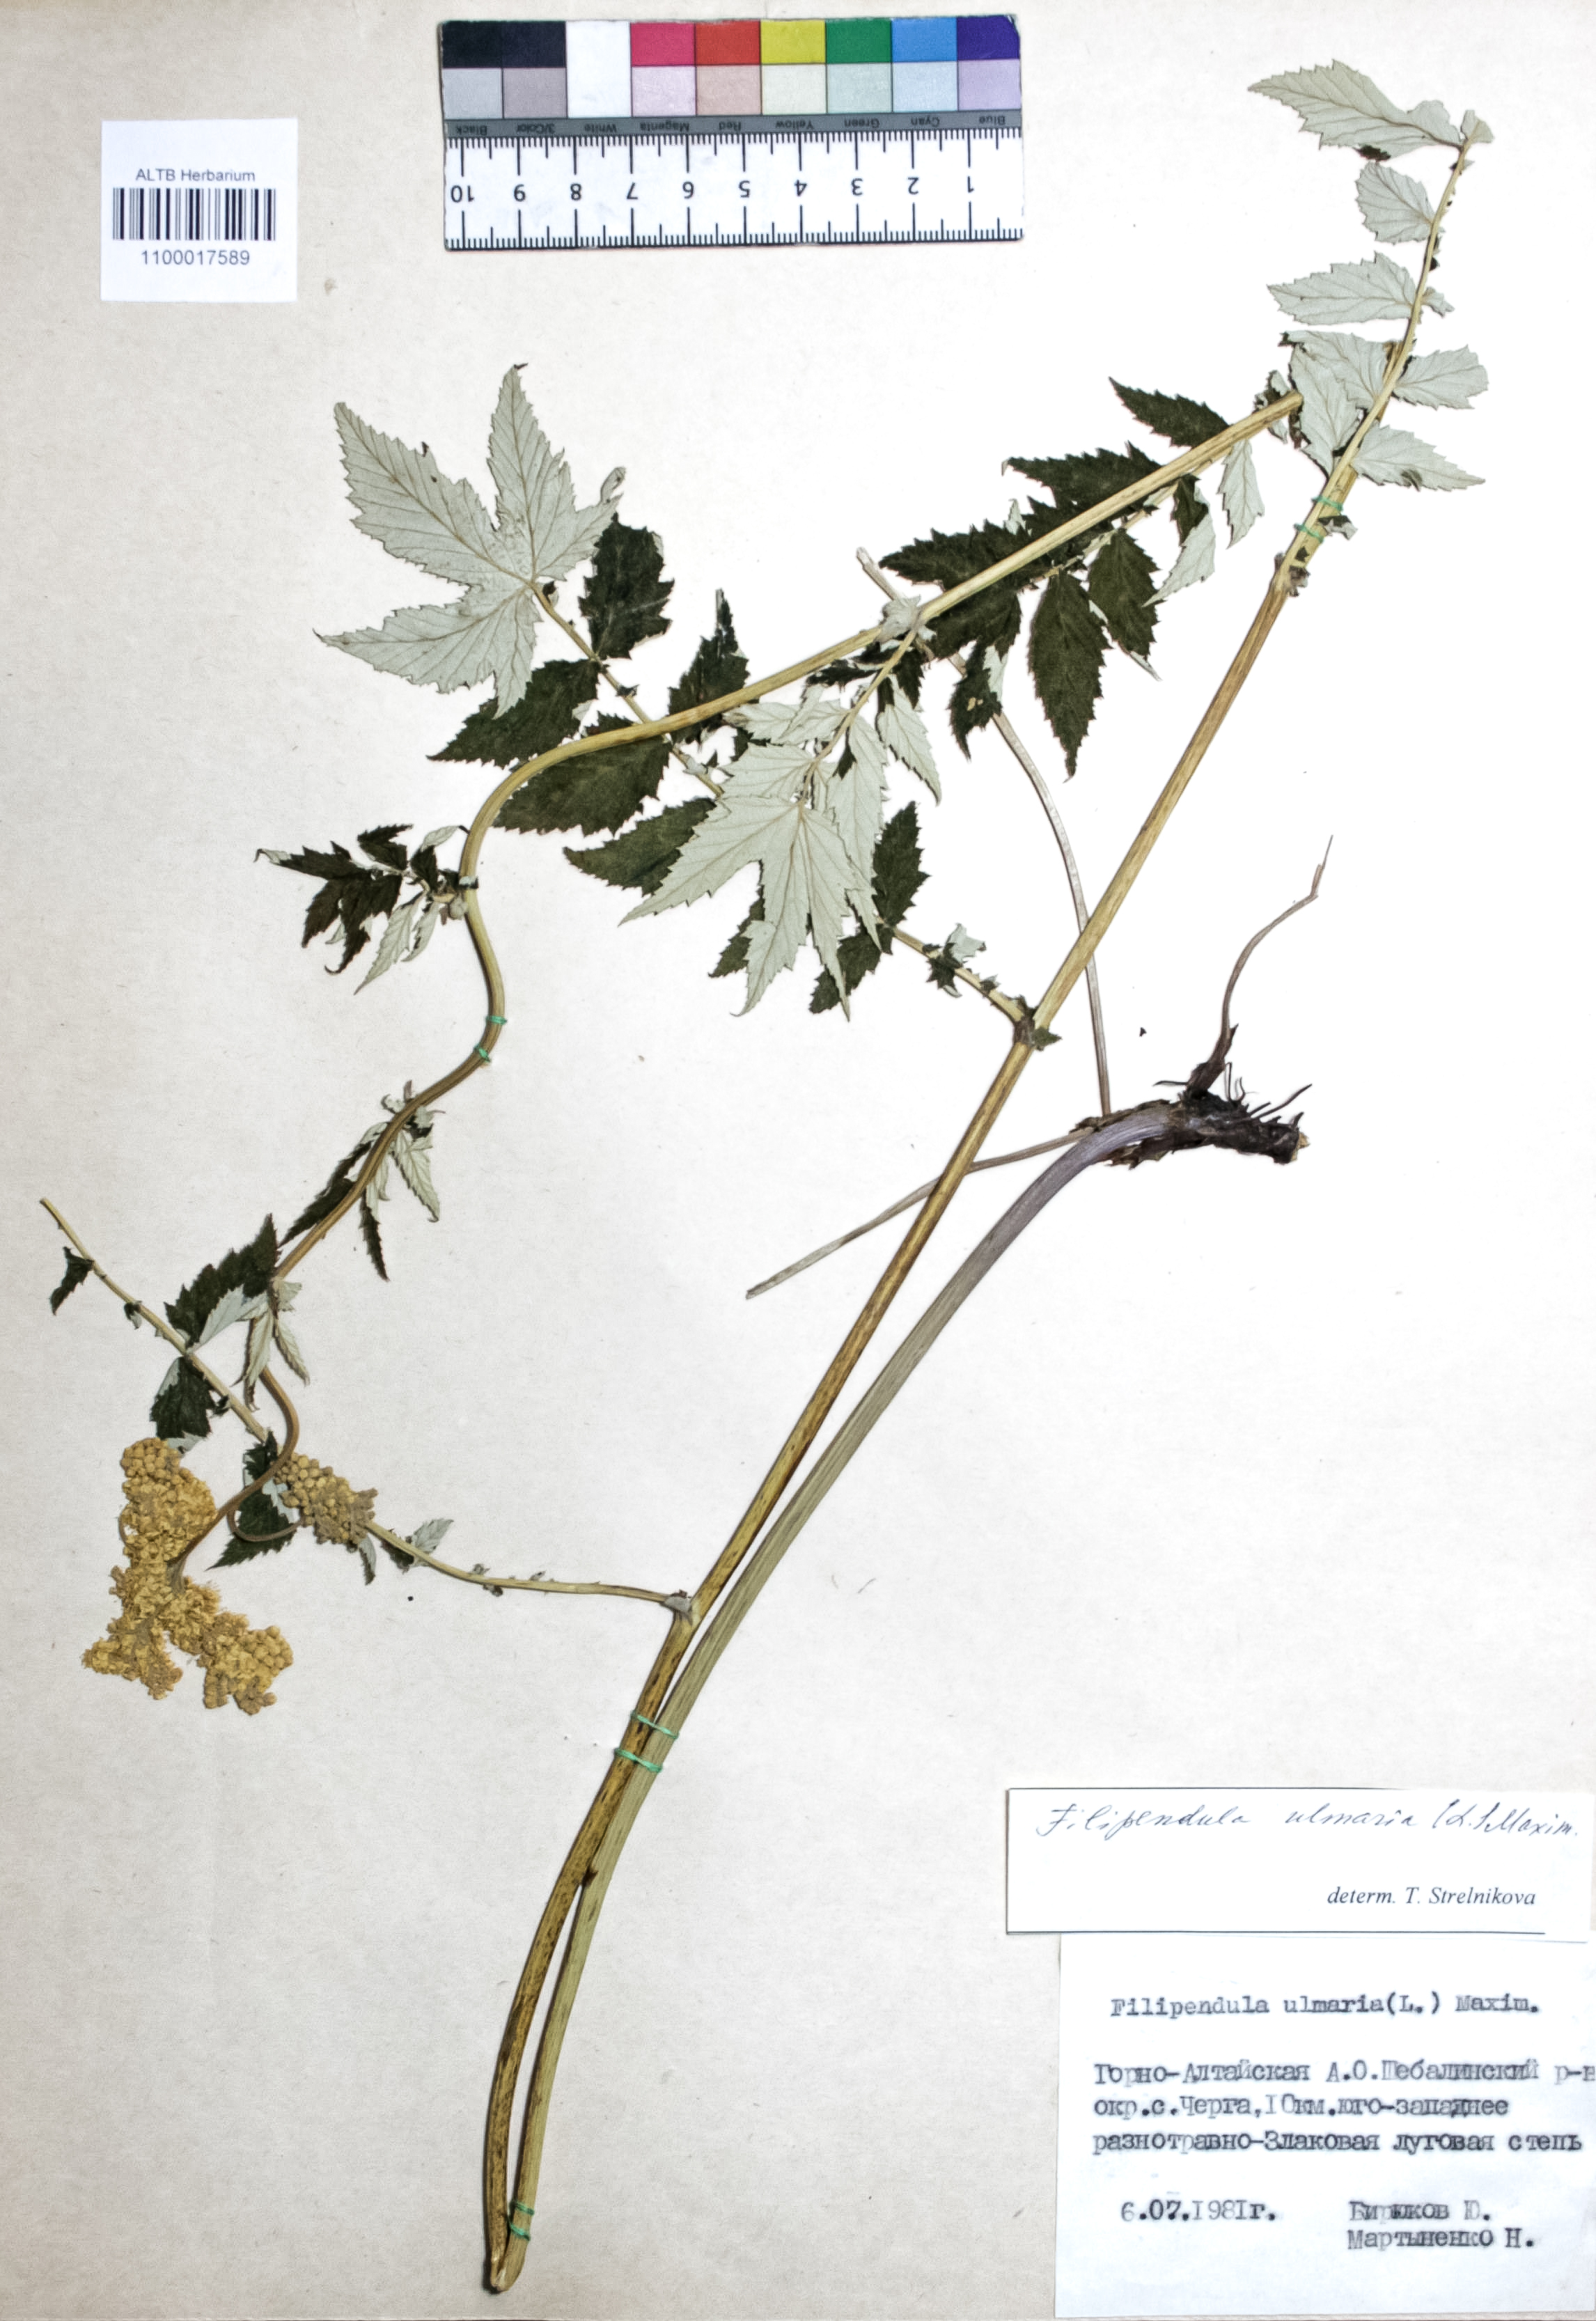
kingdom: Plantae
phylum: Tracheophyta
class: Magnoliopsida
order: Rosales
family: Rosaceae
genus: Filipendula
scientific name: Filipendula ulmaria
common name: Meadowsweet
